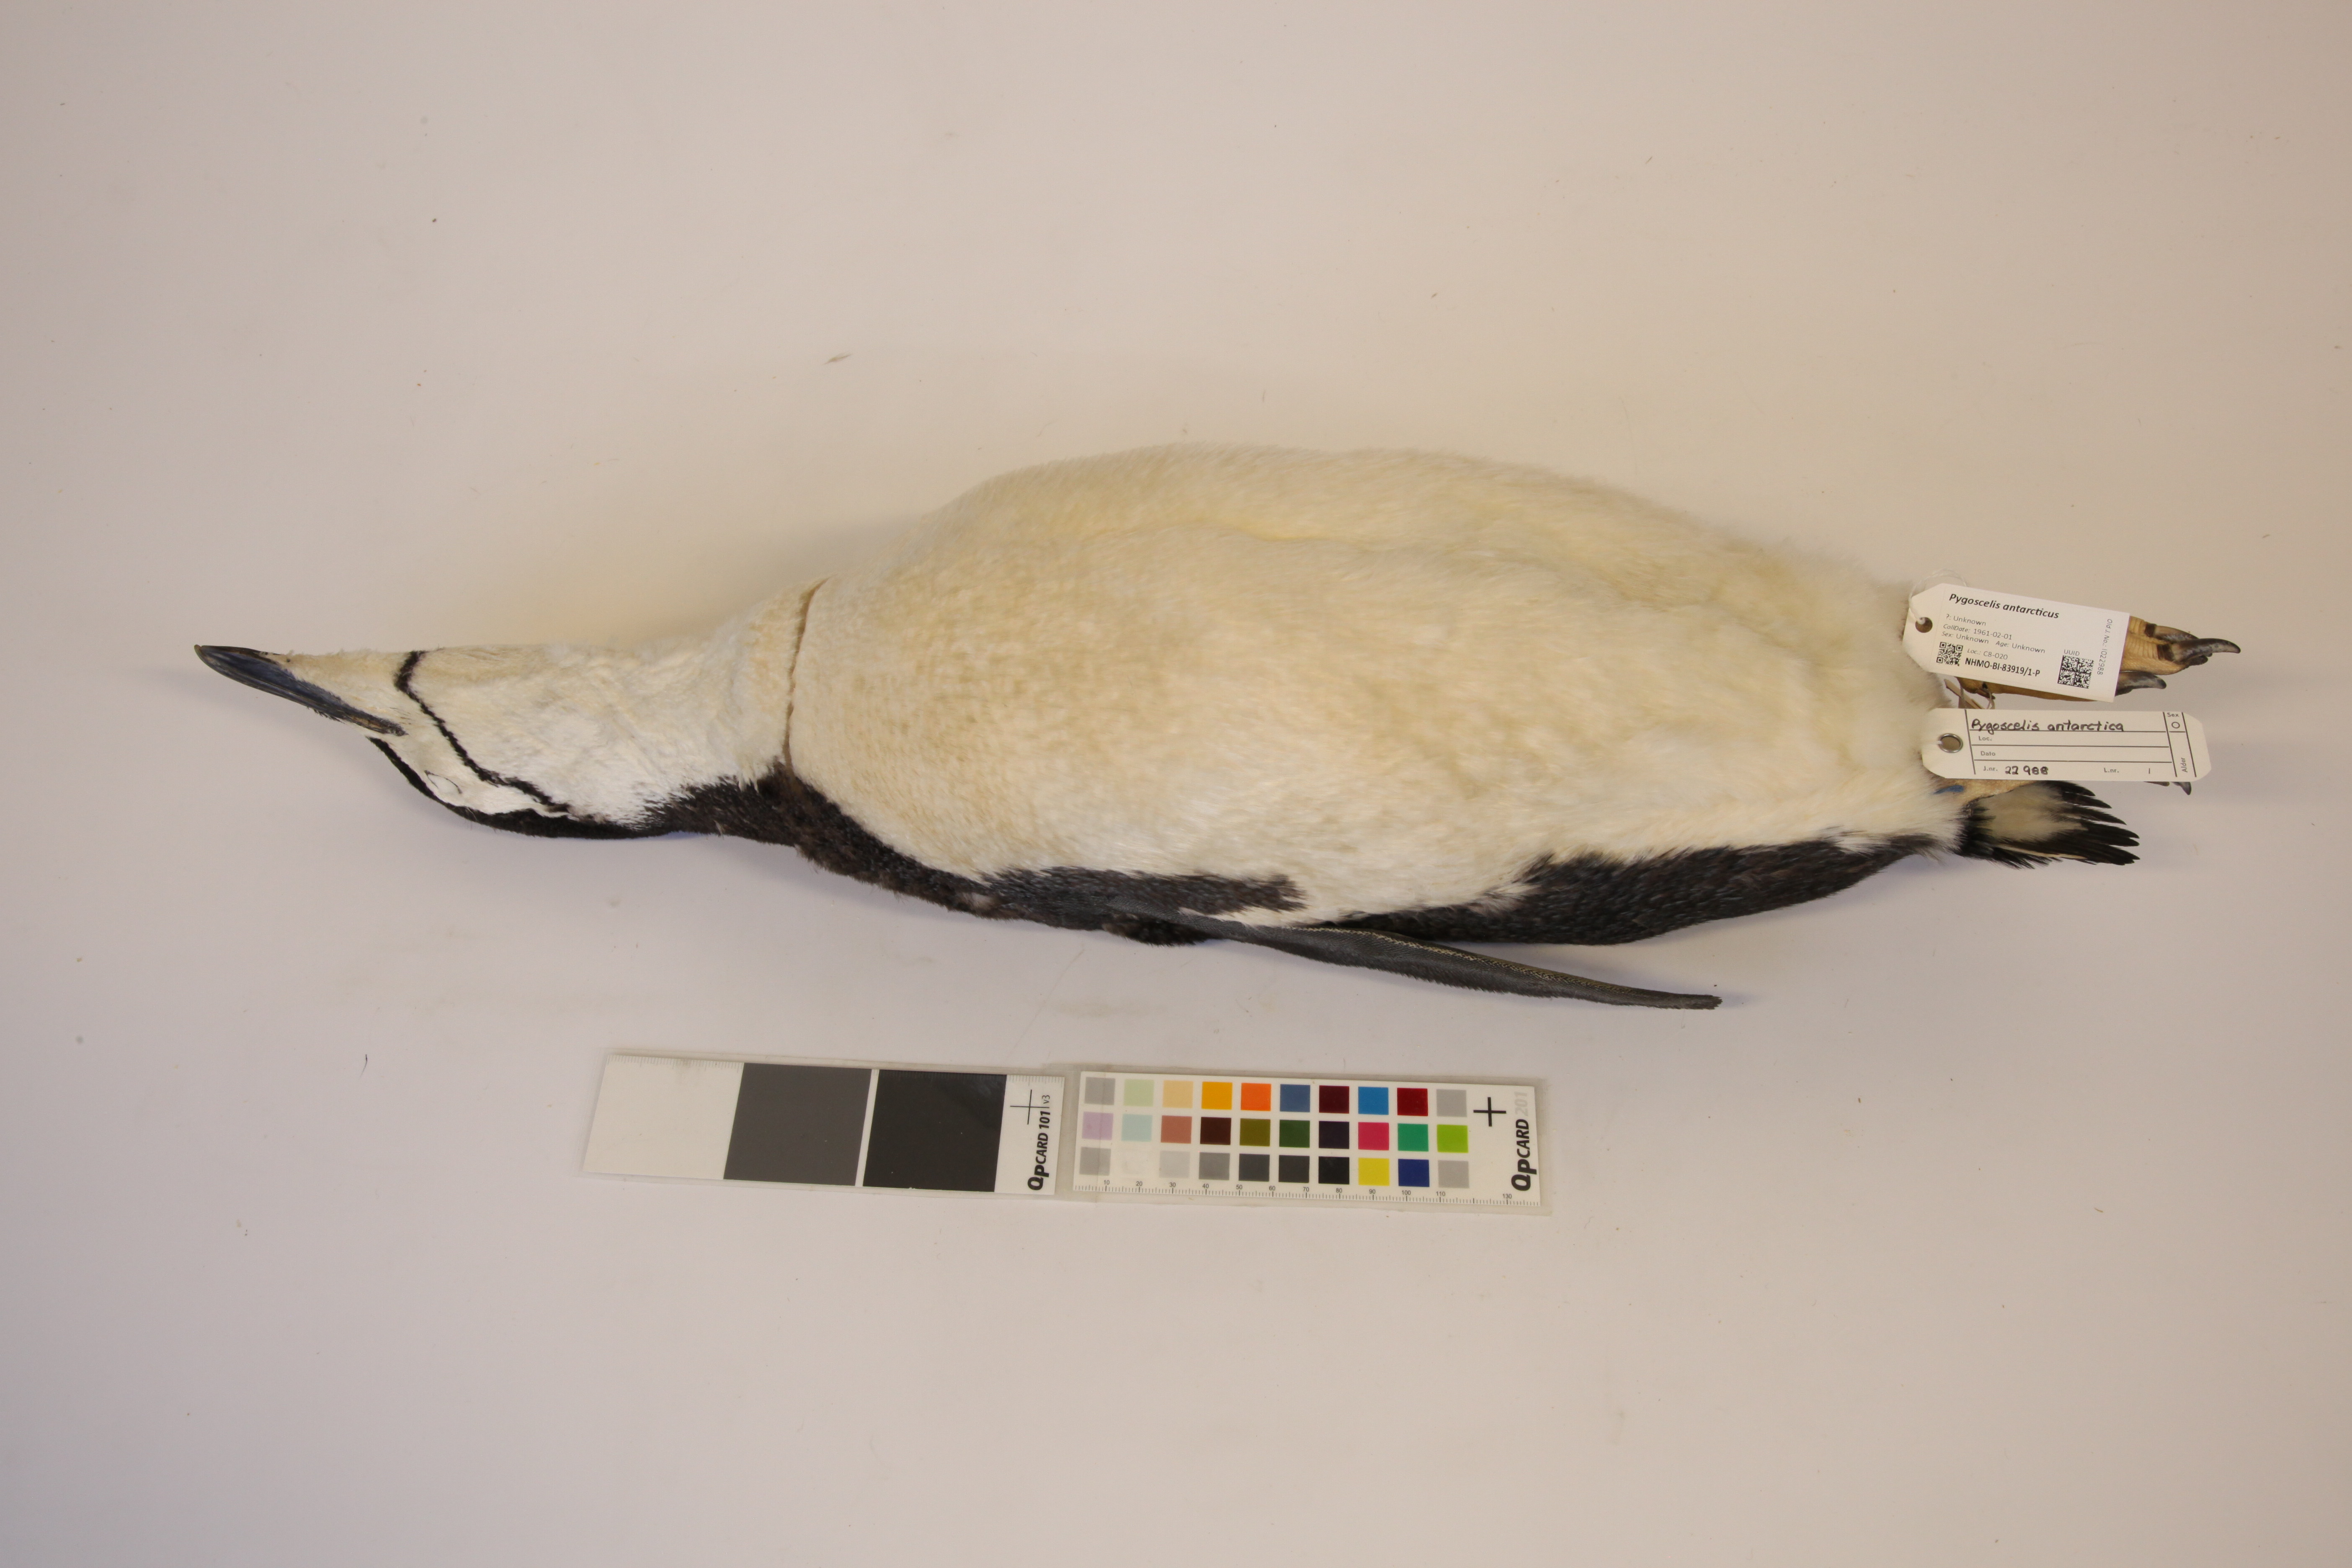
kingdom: Animalia
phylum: Chordata
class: Aves
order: Sphenisciformes
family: Spheniscidae
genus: Pygoscelis
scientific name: Pygoscelis antarcticus
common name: Chinstrap penguin
